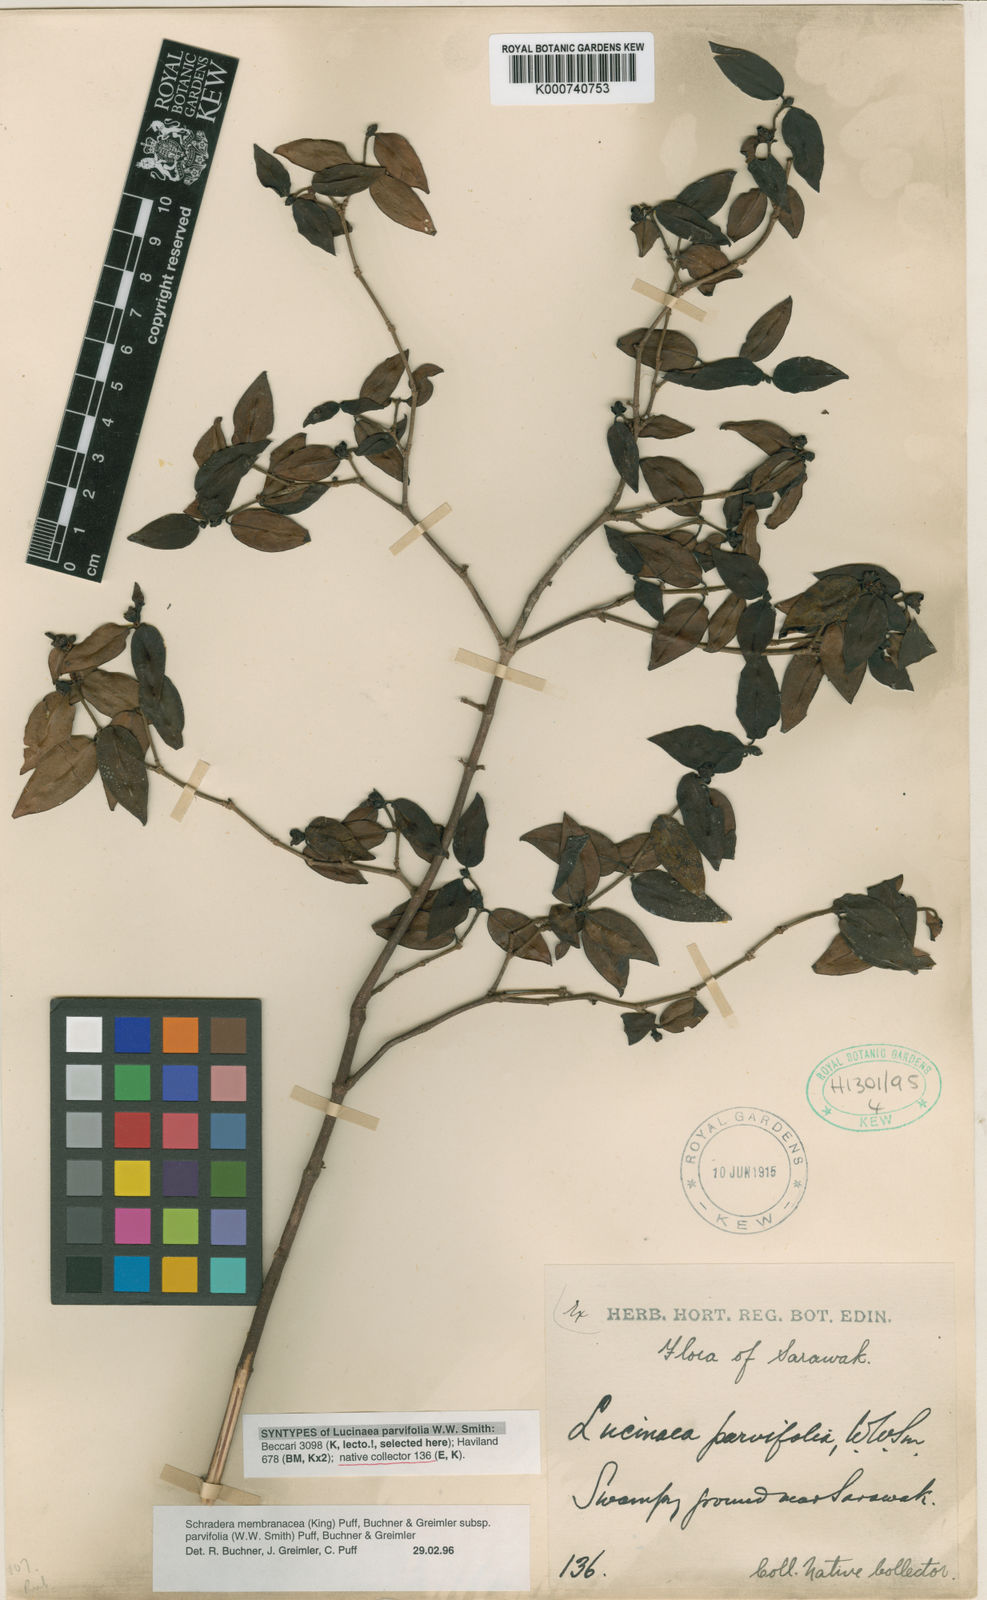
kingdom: Plantae
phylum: Tracheophyta
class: Magnoliopsida
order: Gentianales
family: Rubiaceae
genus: Schradera
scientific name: Schradera
